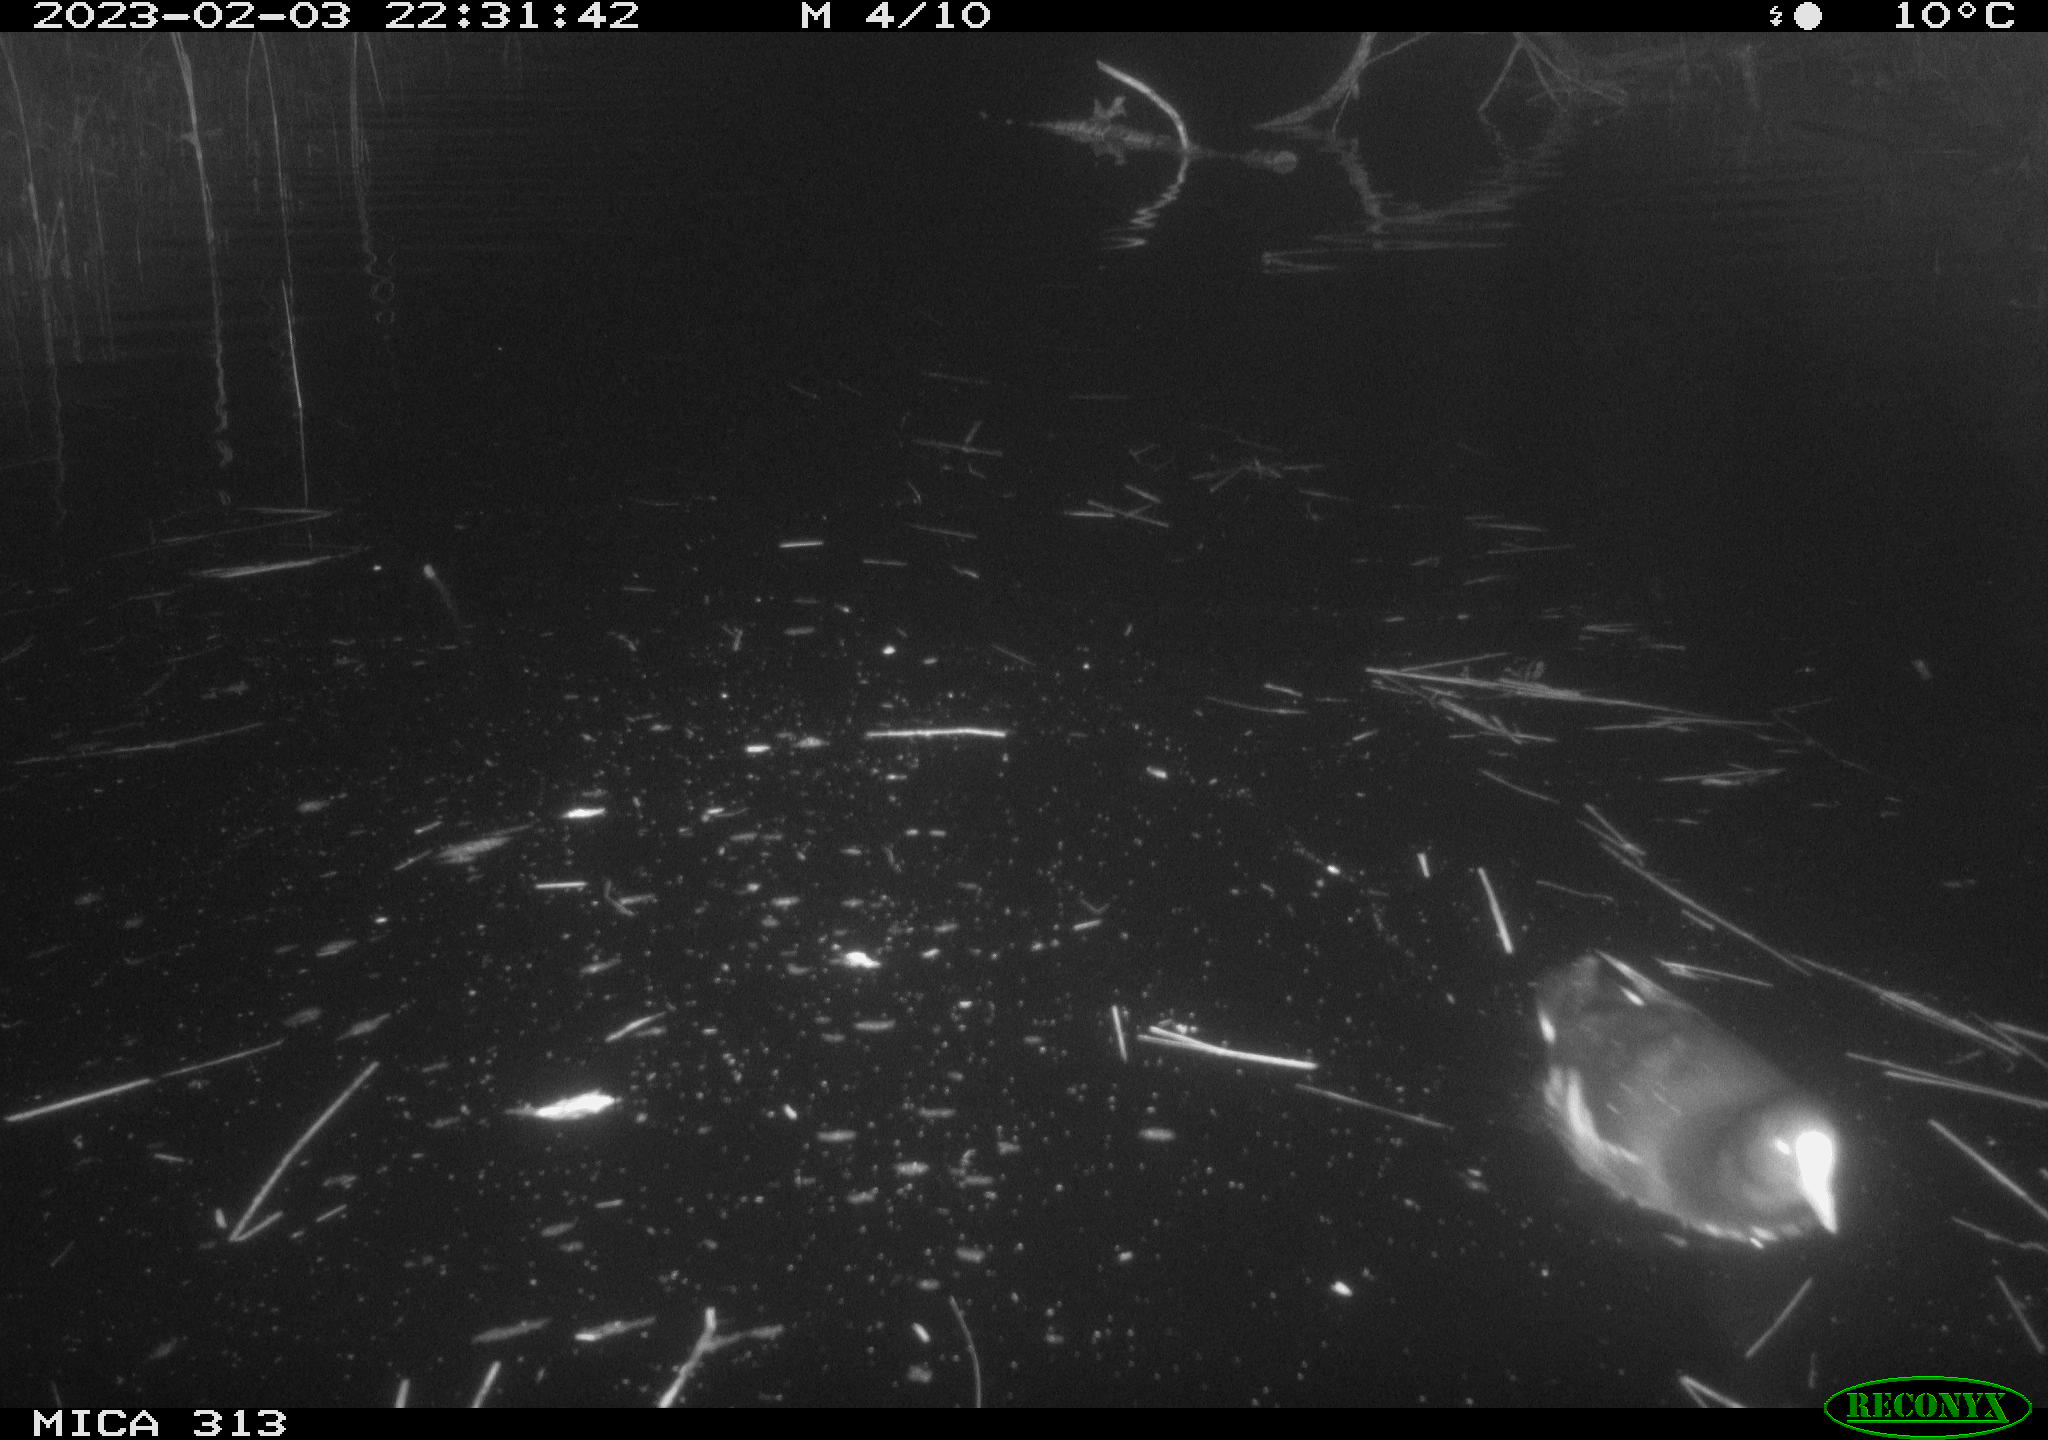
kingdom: Animalia
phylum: Chordata
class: Aves
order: Gruiformes
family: Rallidae
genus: Fulica
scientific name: Fulica atra
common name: Eurasian coot
